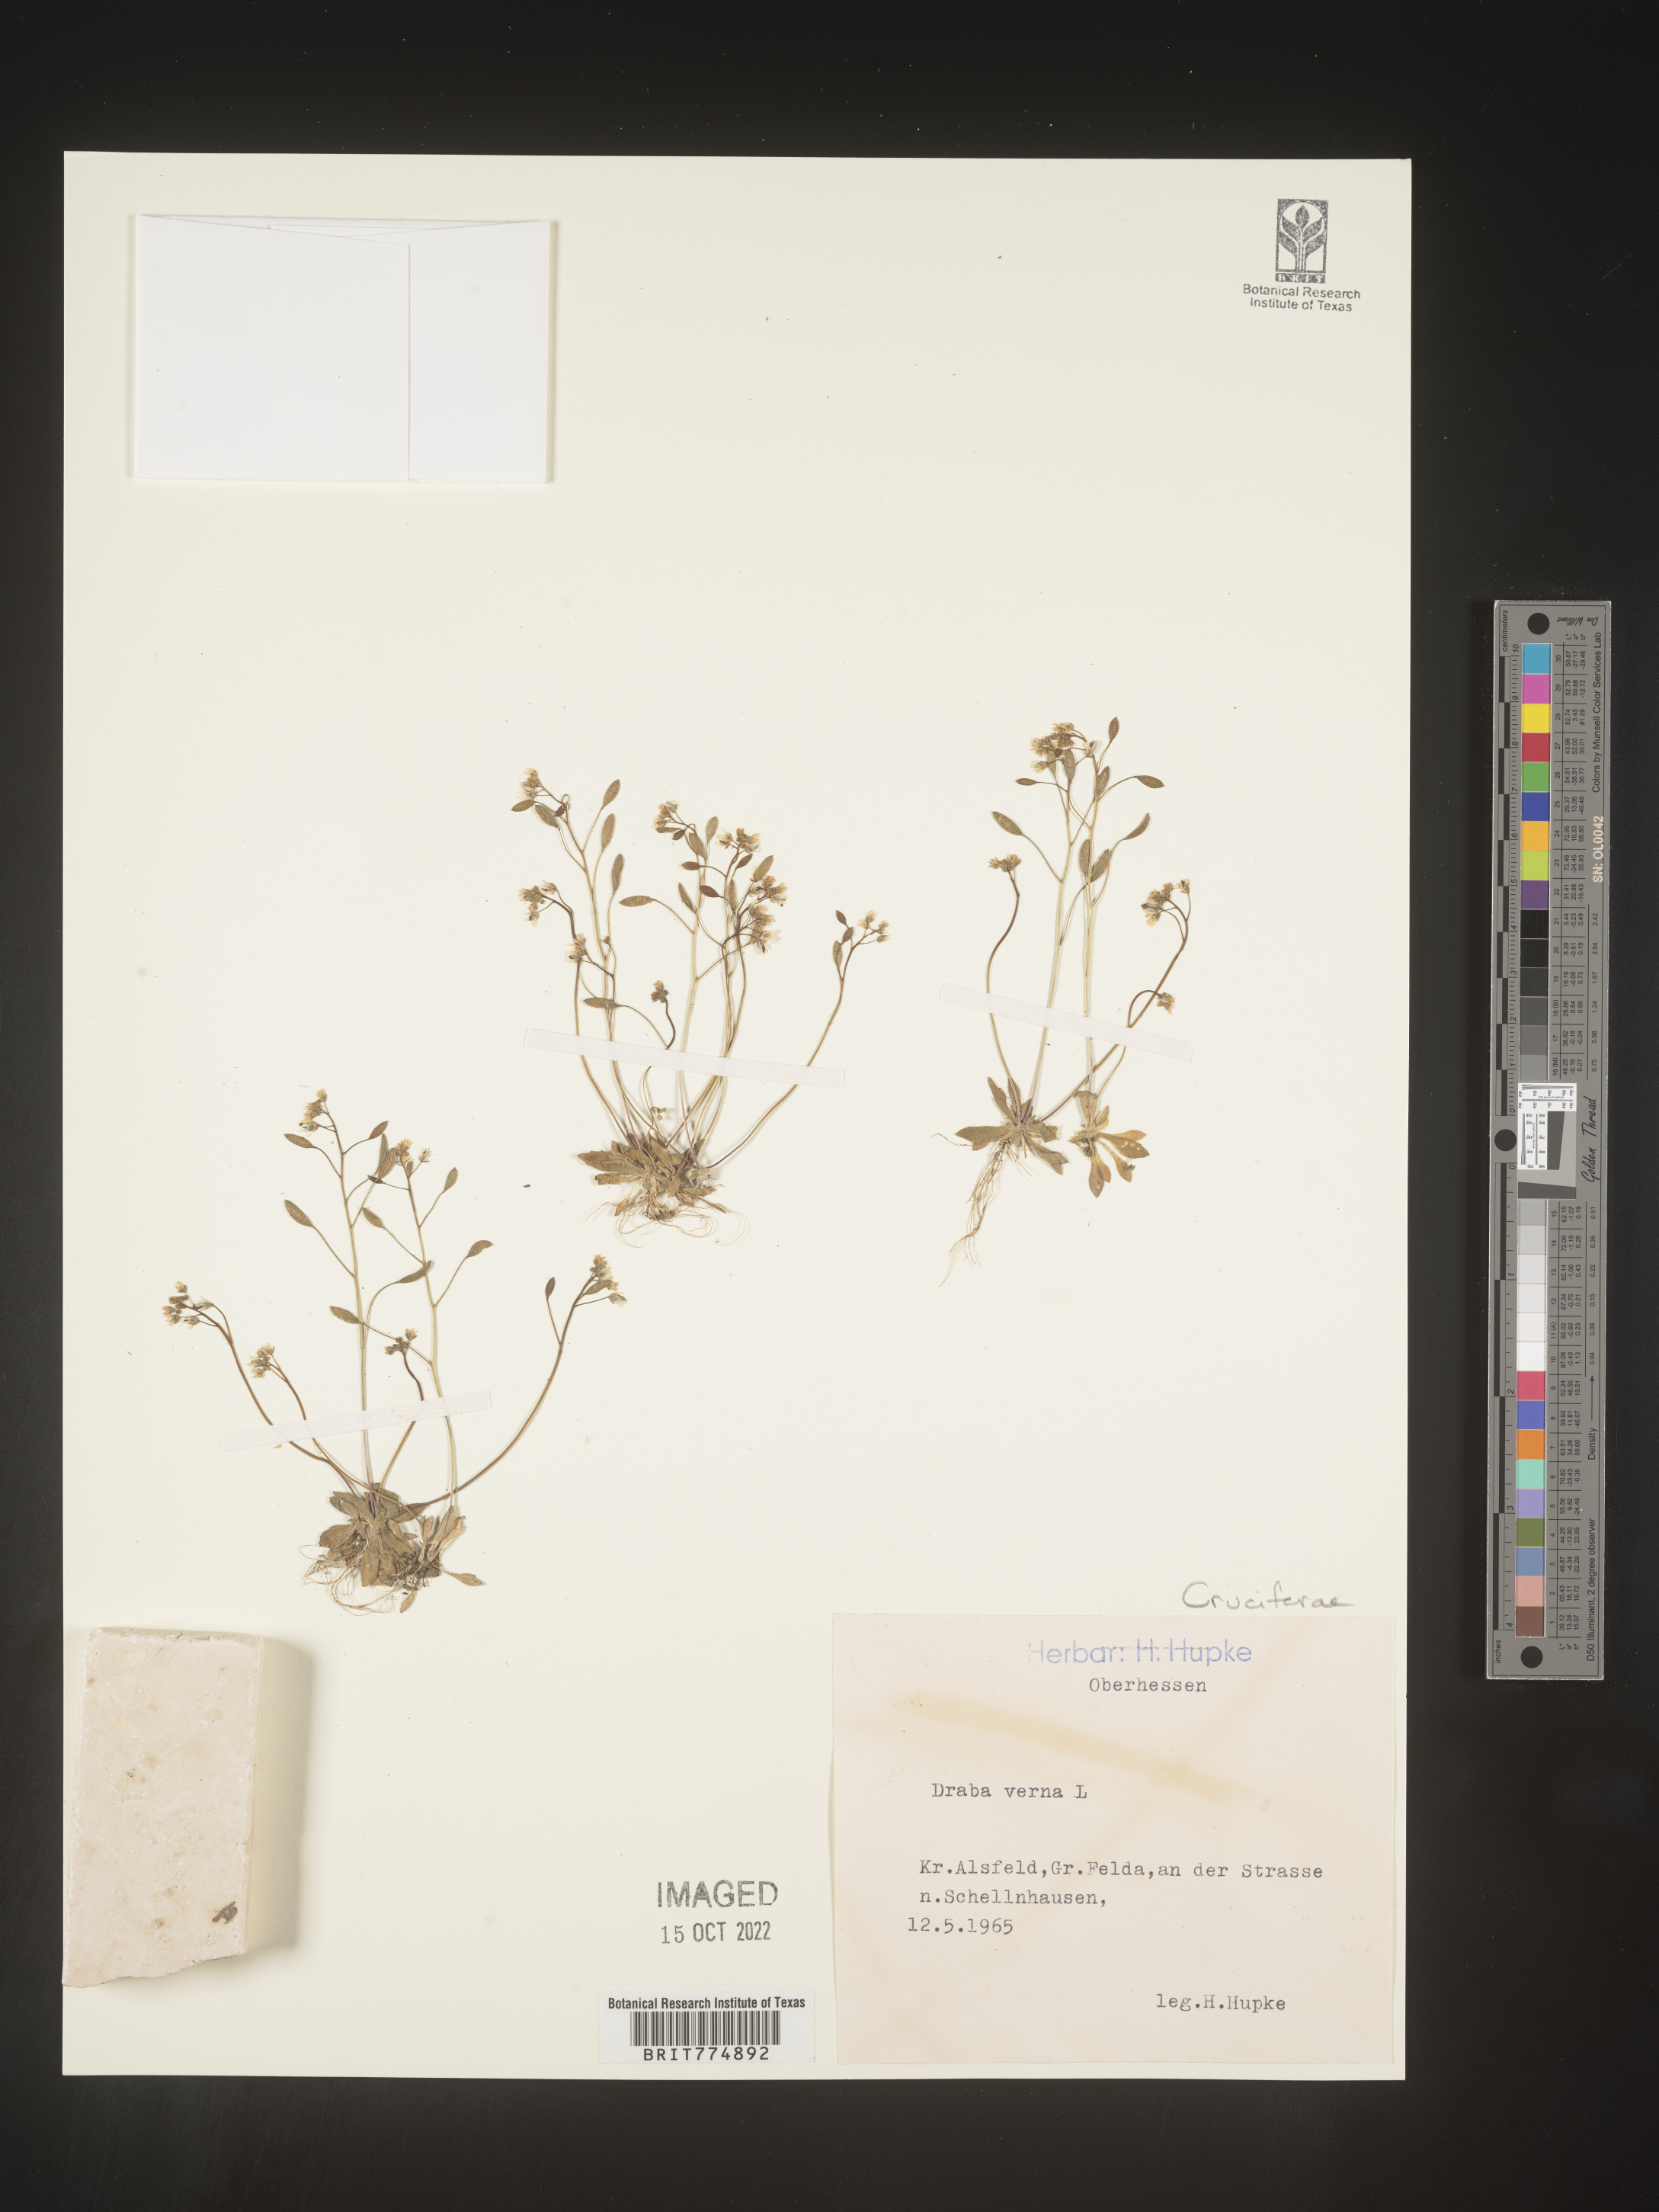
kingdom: Plantae
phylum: Tracheophyta
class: Magnoliopsida
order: Brassicales
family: Brassicaceae
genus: Draba
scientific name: Draba
